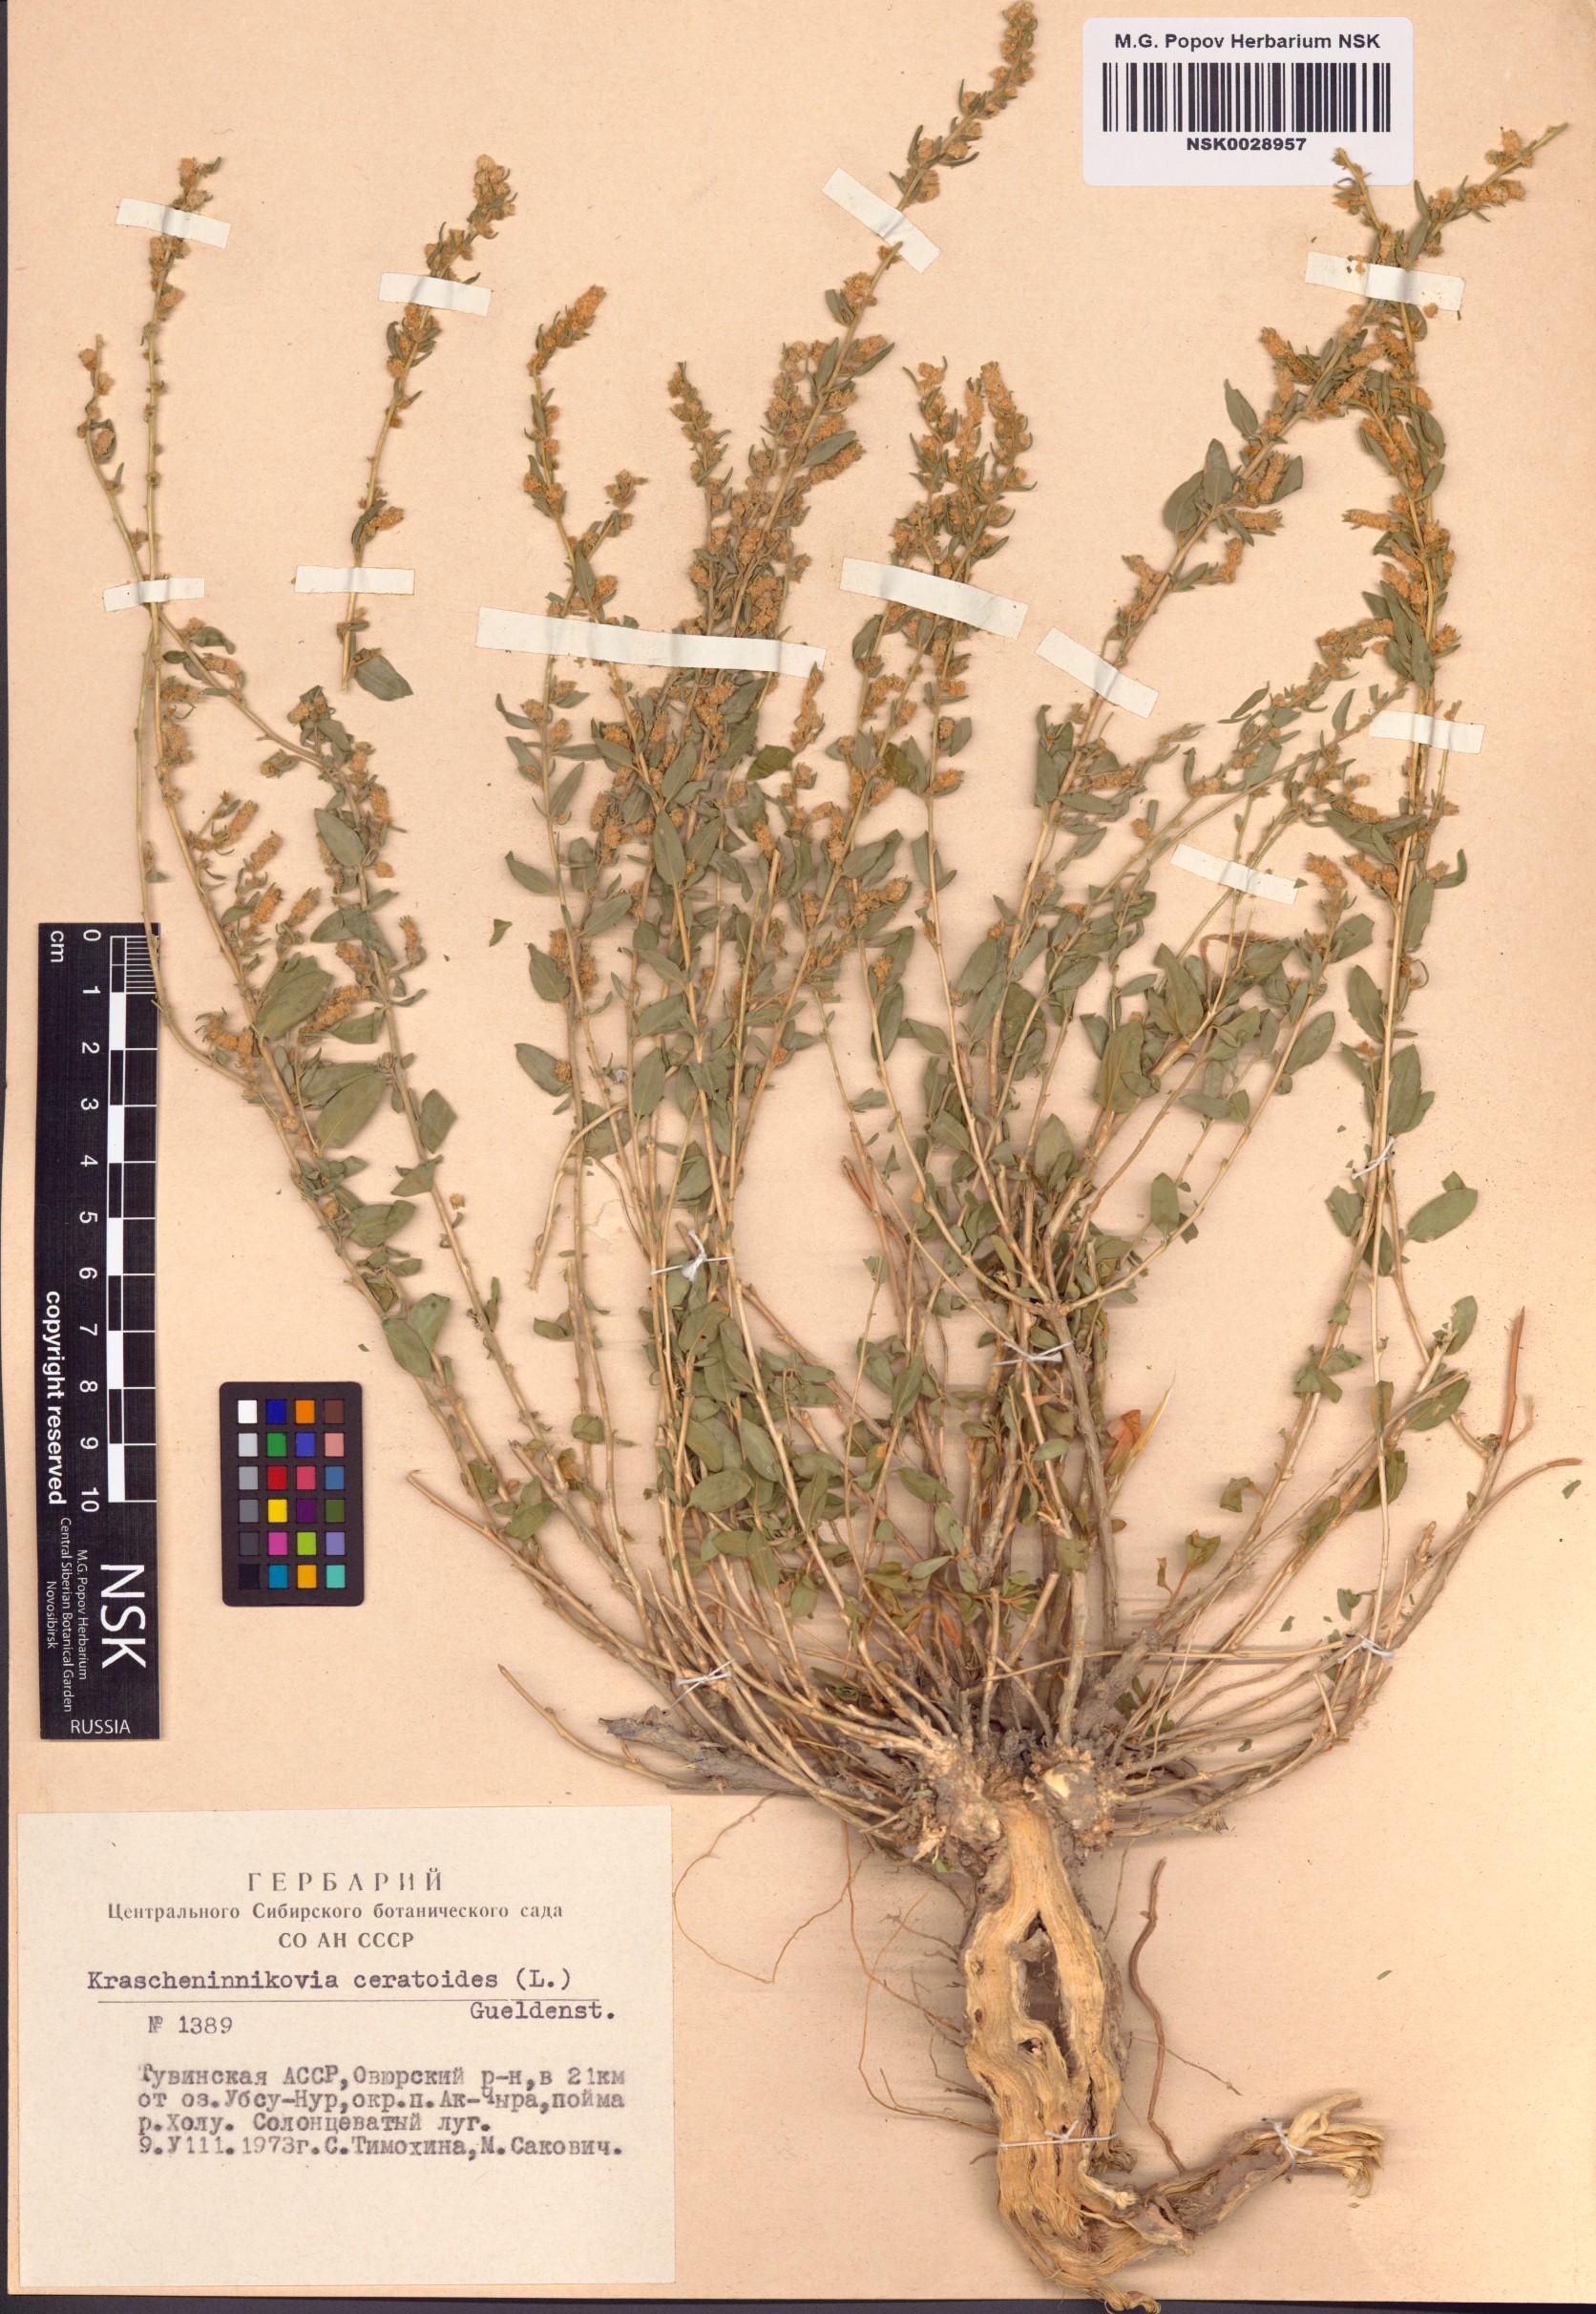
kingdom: Plantae
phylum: Tracheophyta
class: Magnoliopsida
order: Caryophyllales
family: Amaranthaceae
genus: Krascheninnikovia
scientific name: Krascheninnikovia ceratoides
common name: Pamirian winterfat
